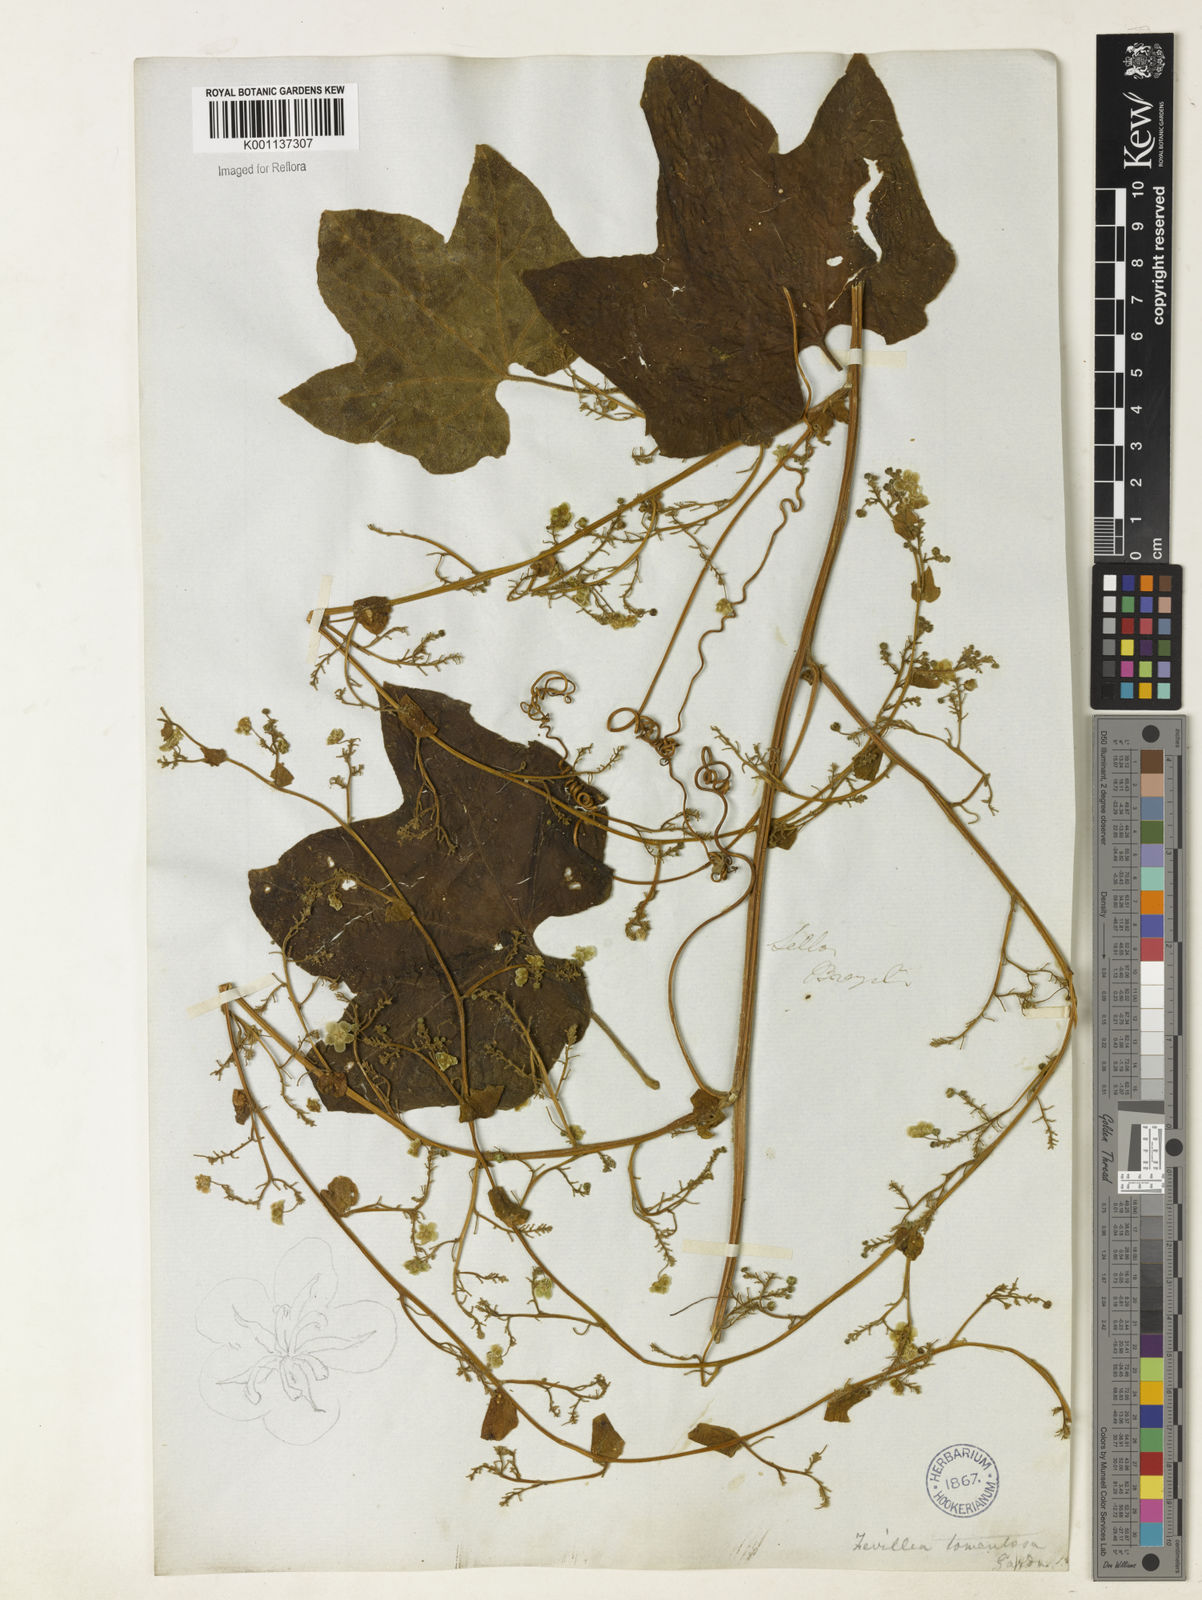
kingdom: Plantae
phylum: Tracheophyta
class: Magnoliopsida
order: Cucurbitales
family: Cucurbitaceae
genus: Fevillea
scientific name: Fevillea trilobata
